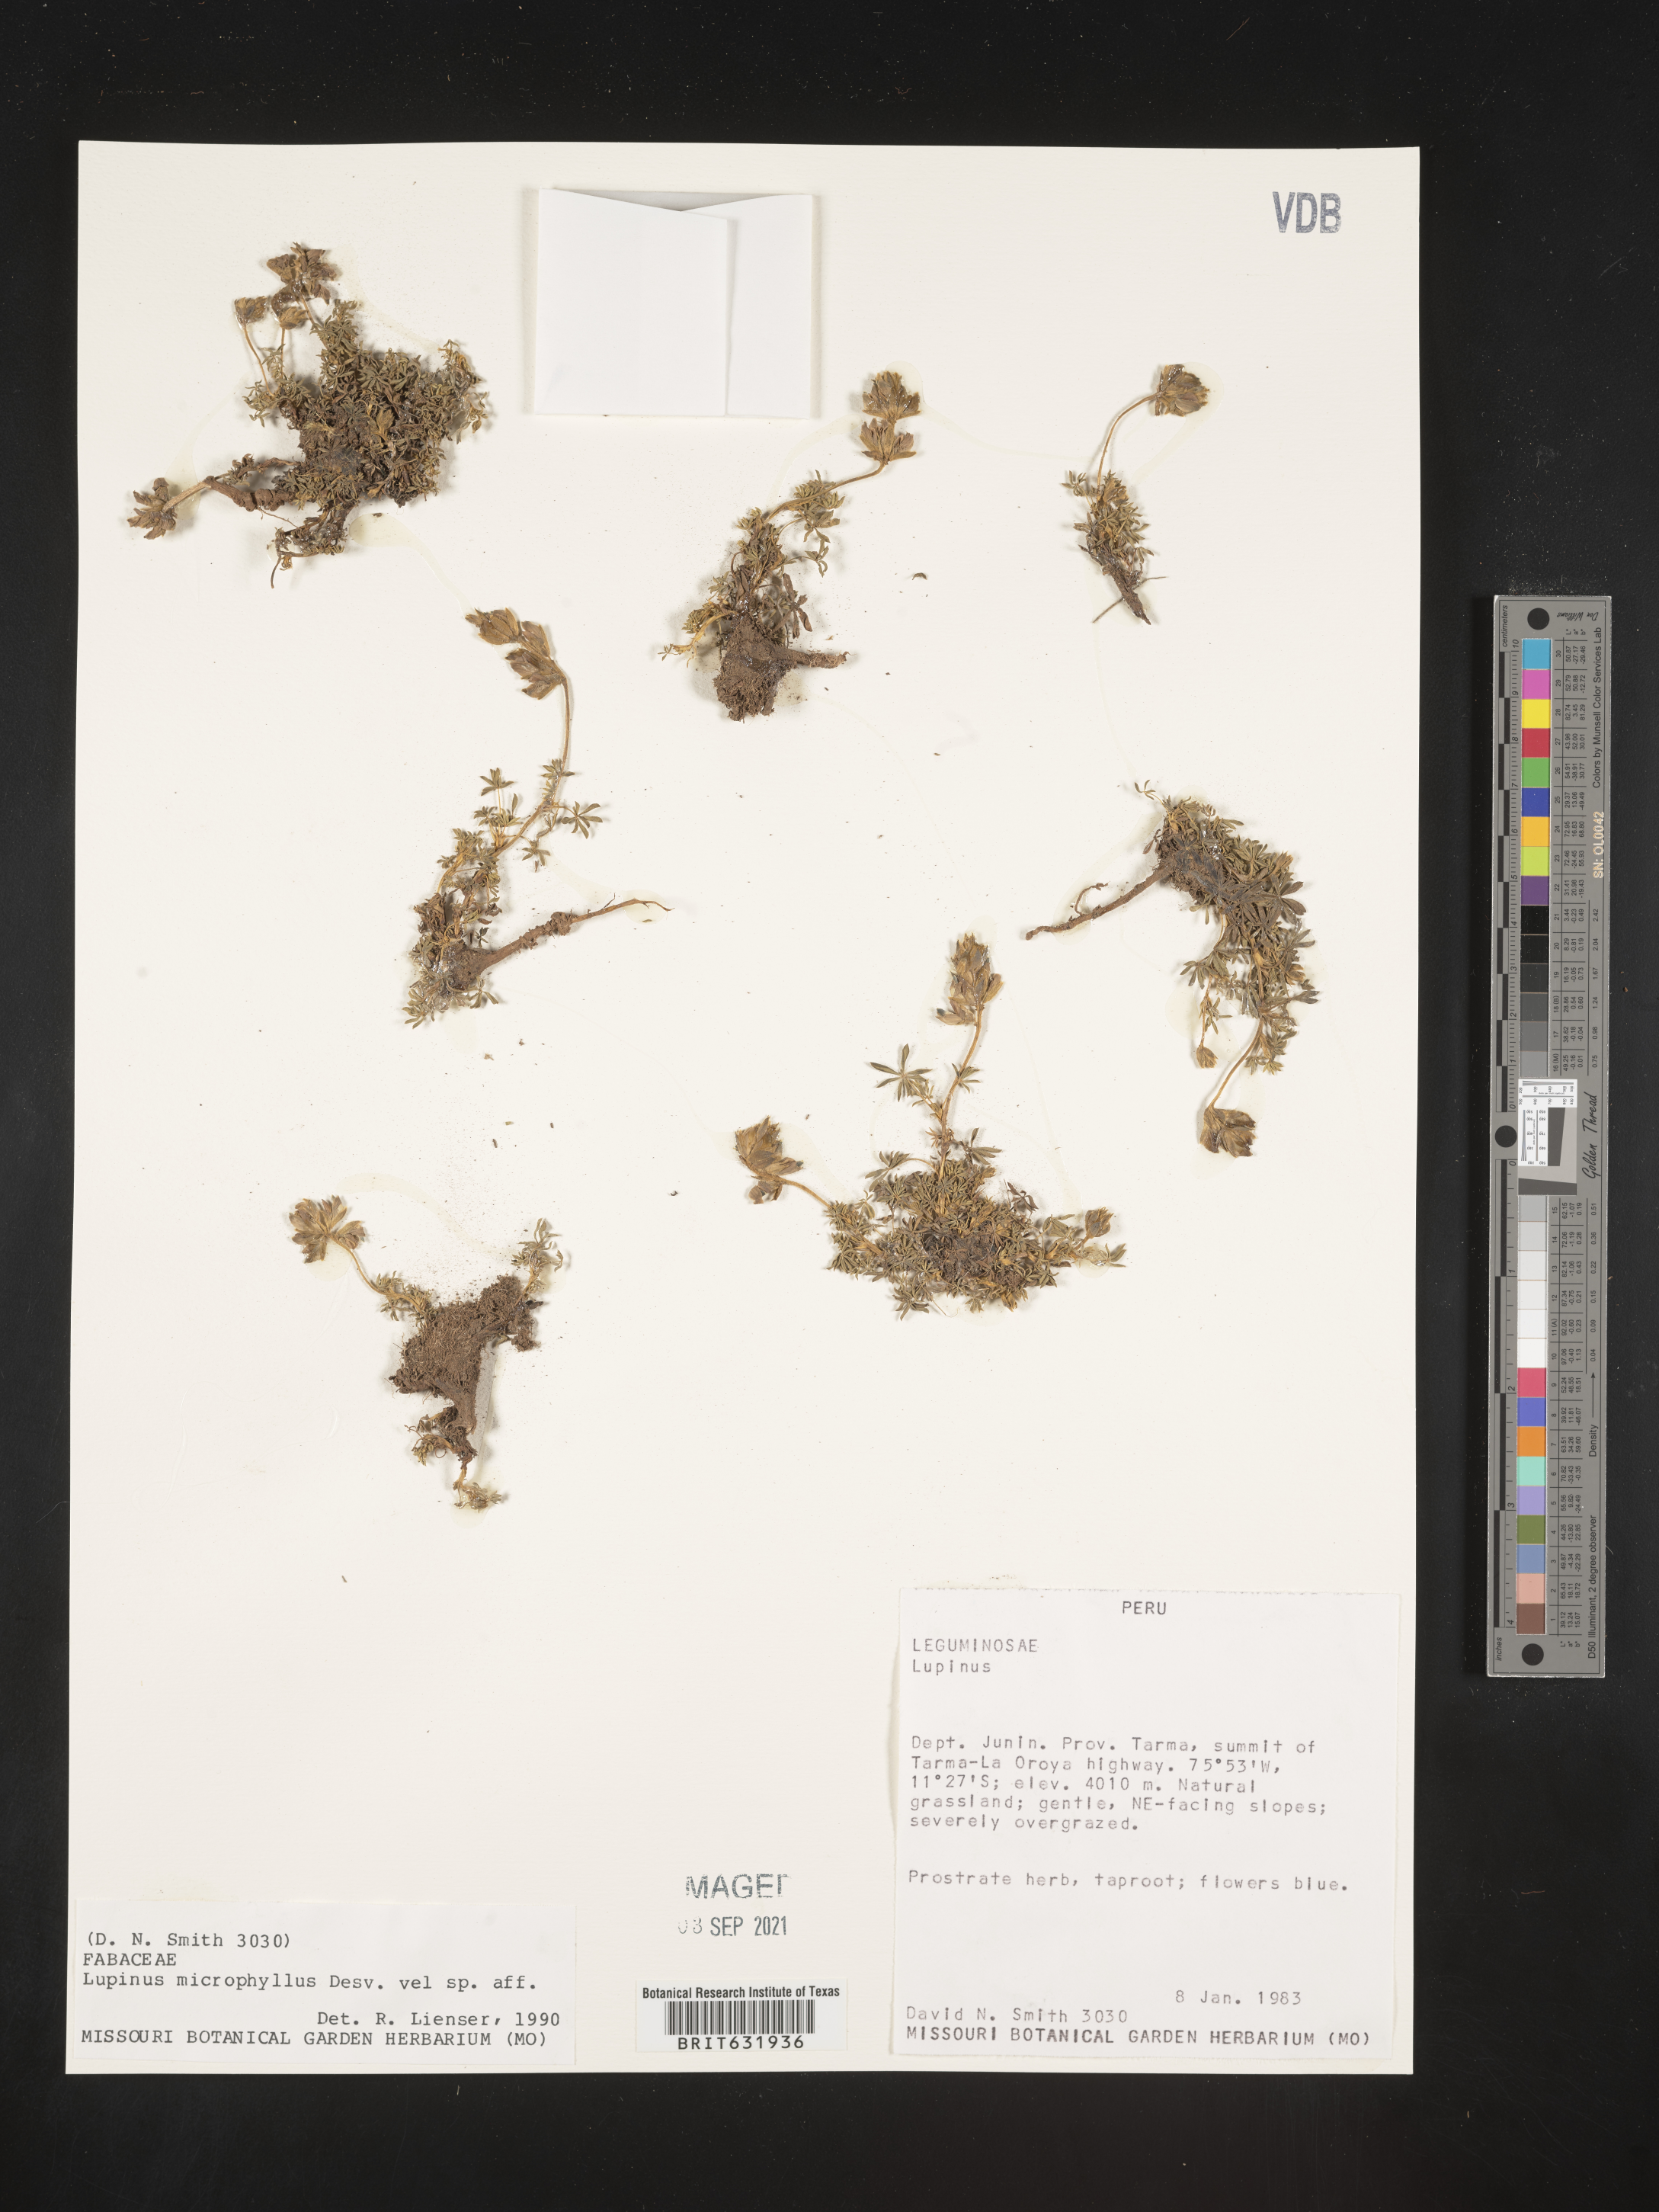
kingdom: Plantae
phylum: Tracheophyta
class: Magnoliopsida
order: Fabales
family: Fabaceae
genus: Lupinus
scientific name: Lupinus
